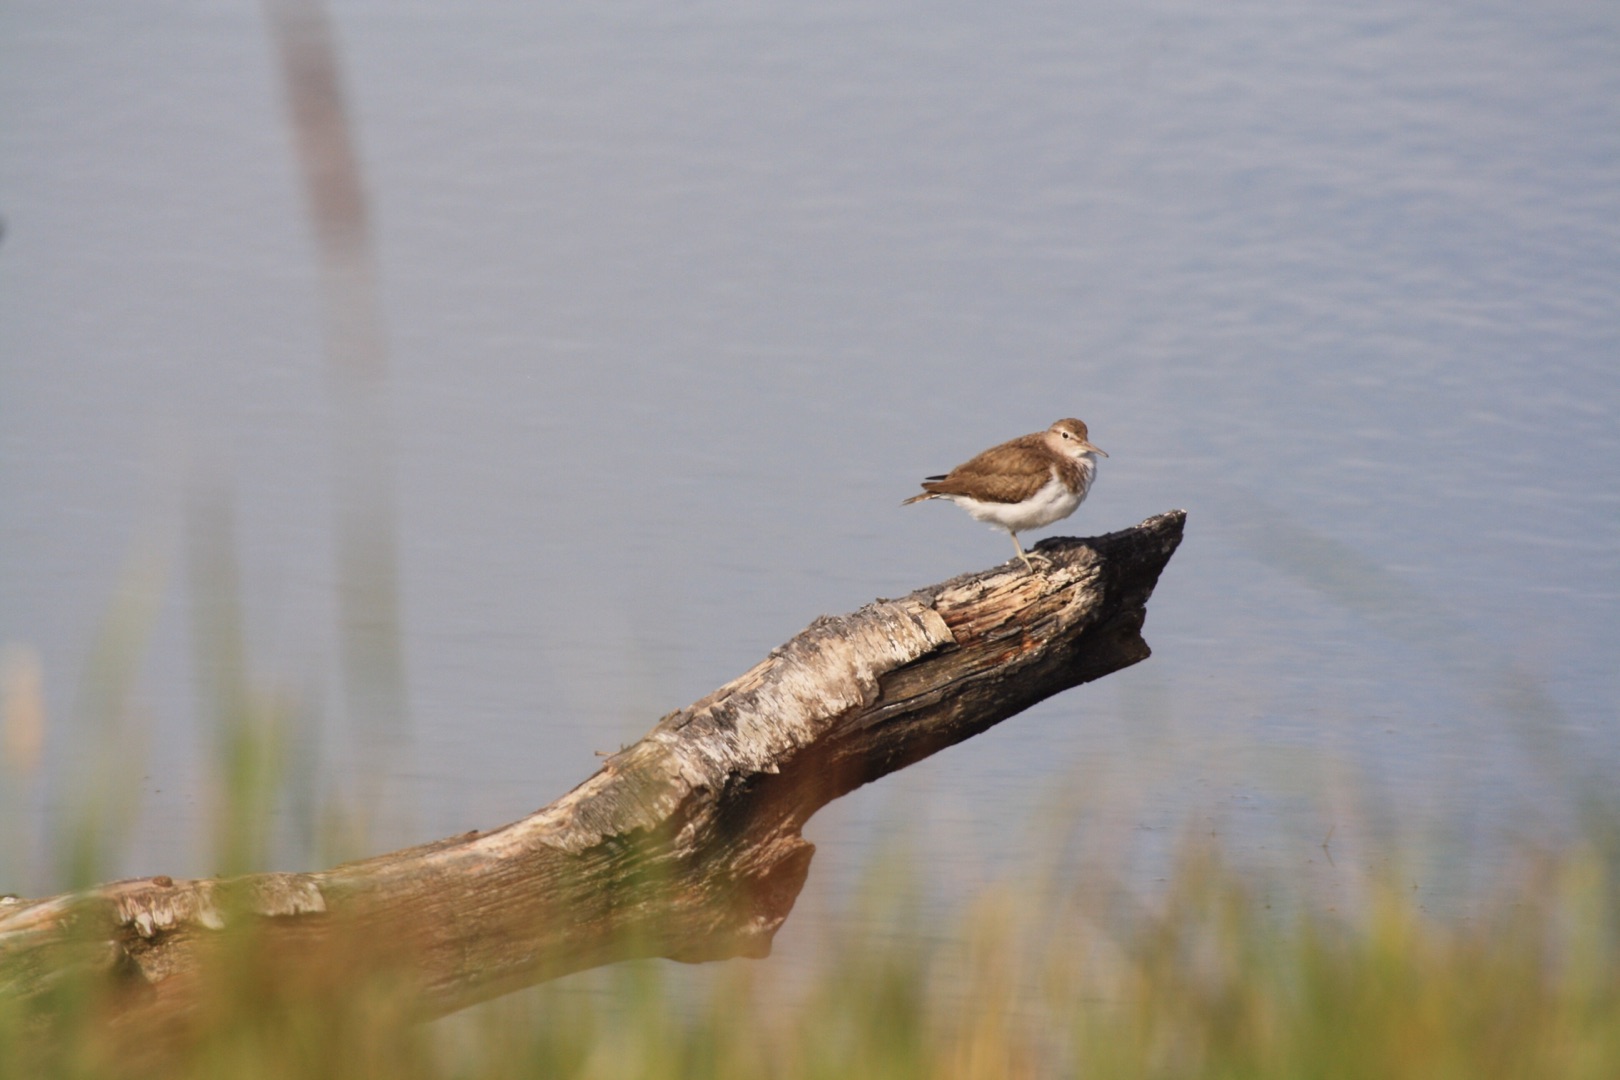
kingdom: Animalia
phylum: Chordata
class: Aves
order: Charadriiformes
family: Scolopacidae
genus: Actitis
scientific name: Actitis hypoleucos
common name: Mudderklire
